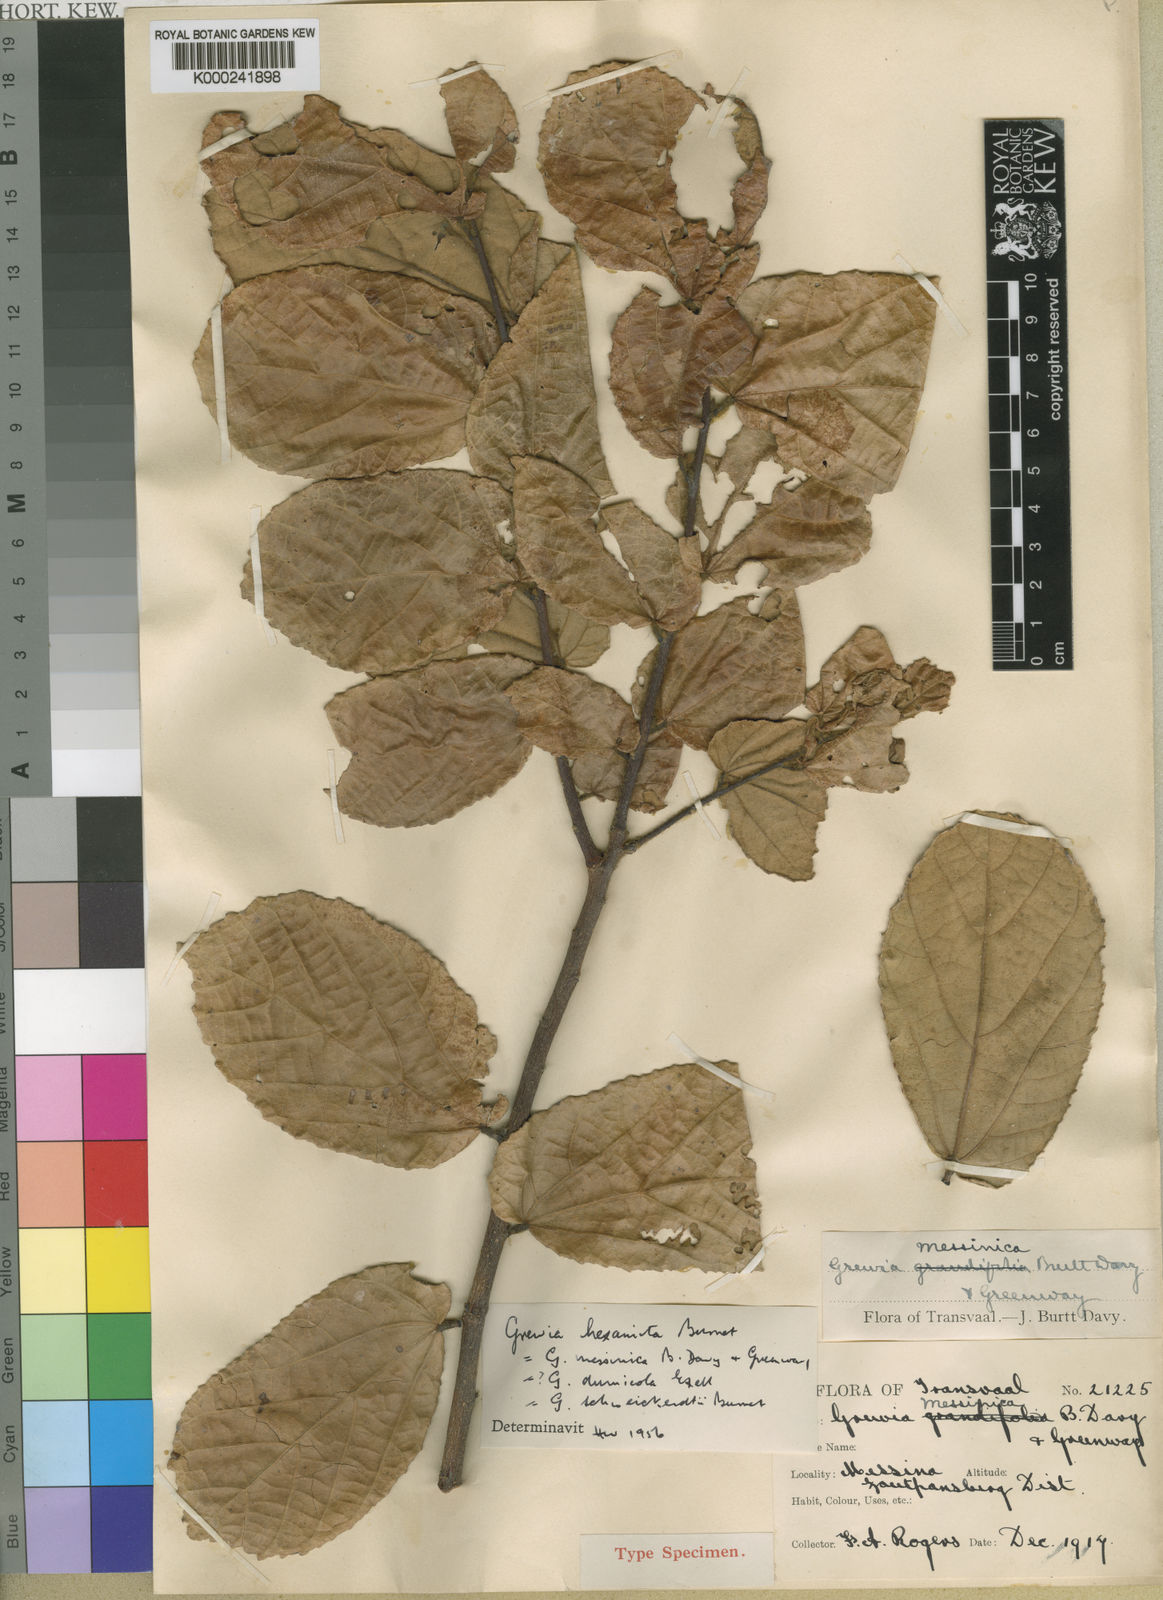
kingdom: Plantae
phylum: Tracheophyta
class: Magnoliopsida
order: Malvales
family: Malvaceae
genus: Grewia
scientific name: Grewia hexamita
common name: Giant raisin
